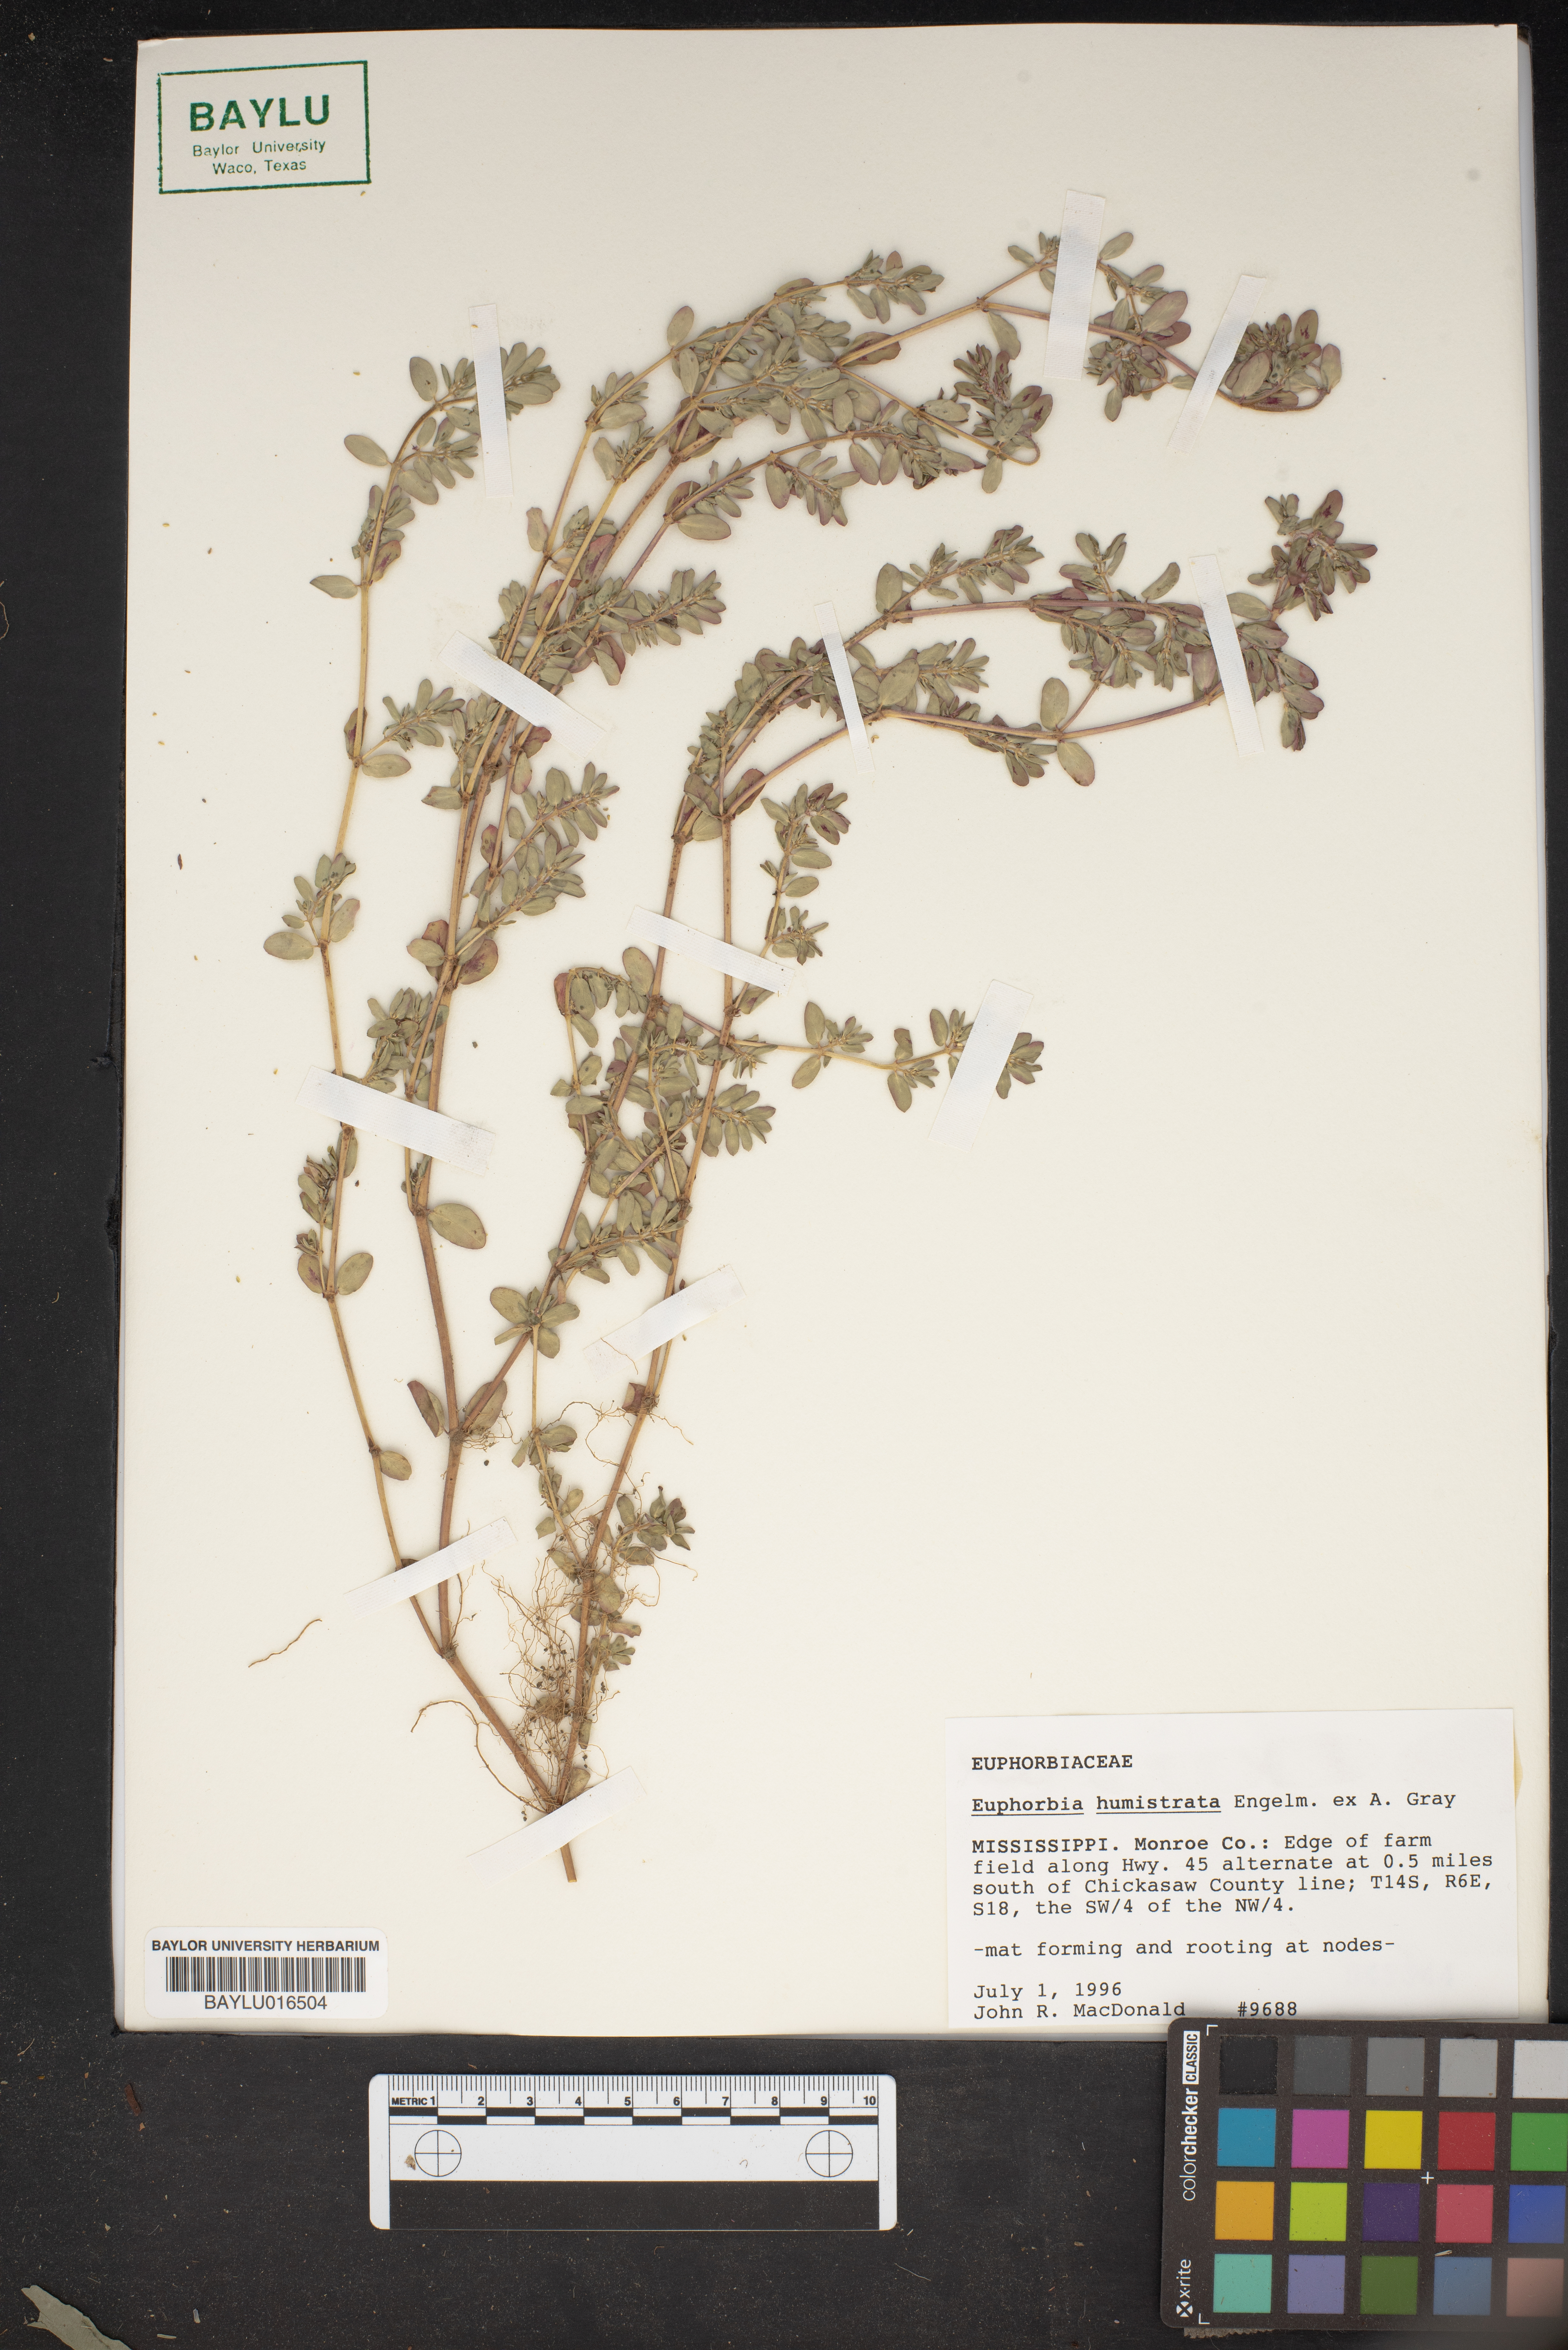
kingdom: Plantae
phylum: Tracheophyta
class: Magnoliopsida
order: Malpighiales
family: Euphorbiaceae
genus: Euphorbia
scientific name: Euphorbia humistrata
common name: Hairy spreading spurge
